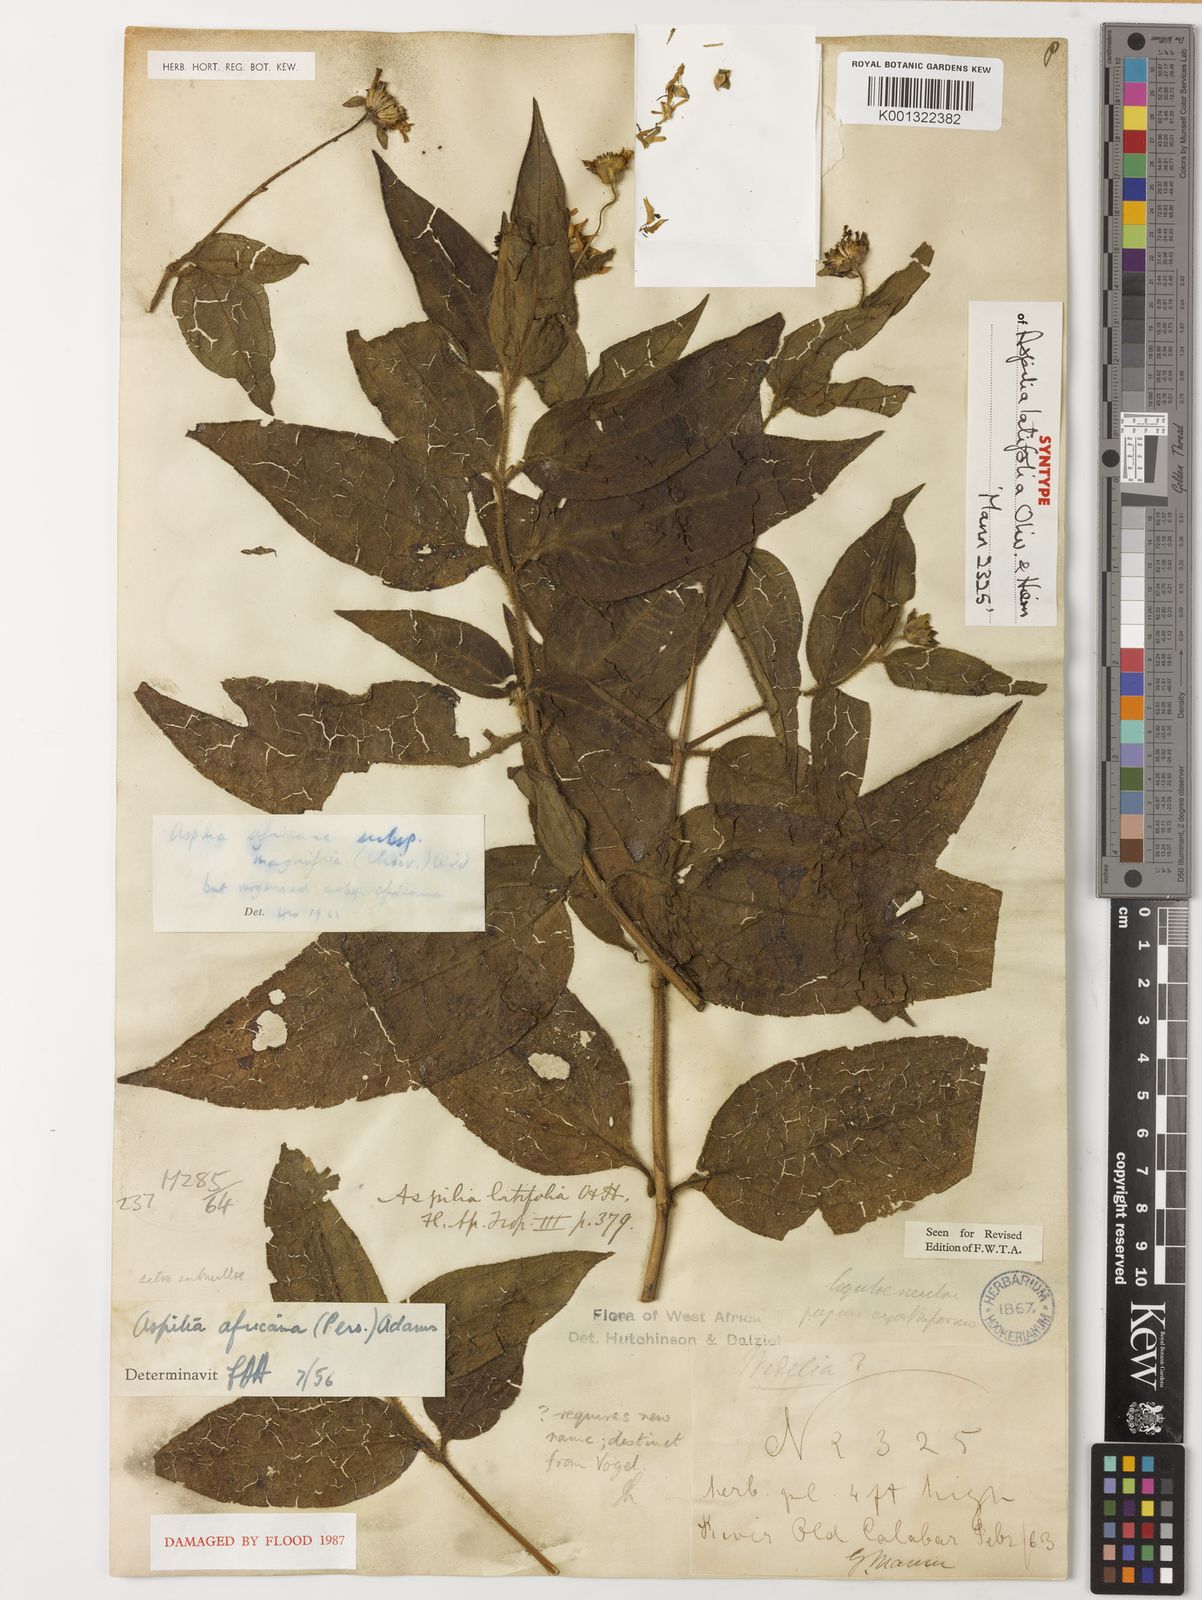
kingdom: Plantae
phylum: Tracheophyta
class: Magnoliopsida
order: Asterales
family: Asteraceae
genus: Aspilia
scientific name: Aspilia africana
